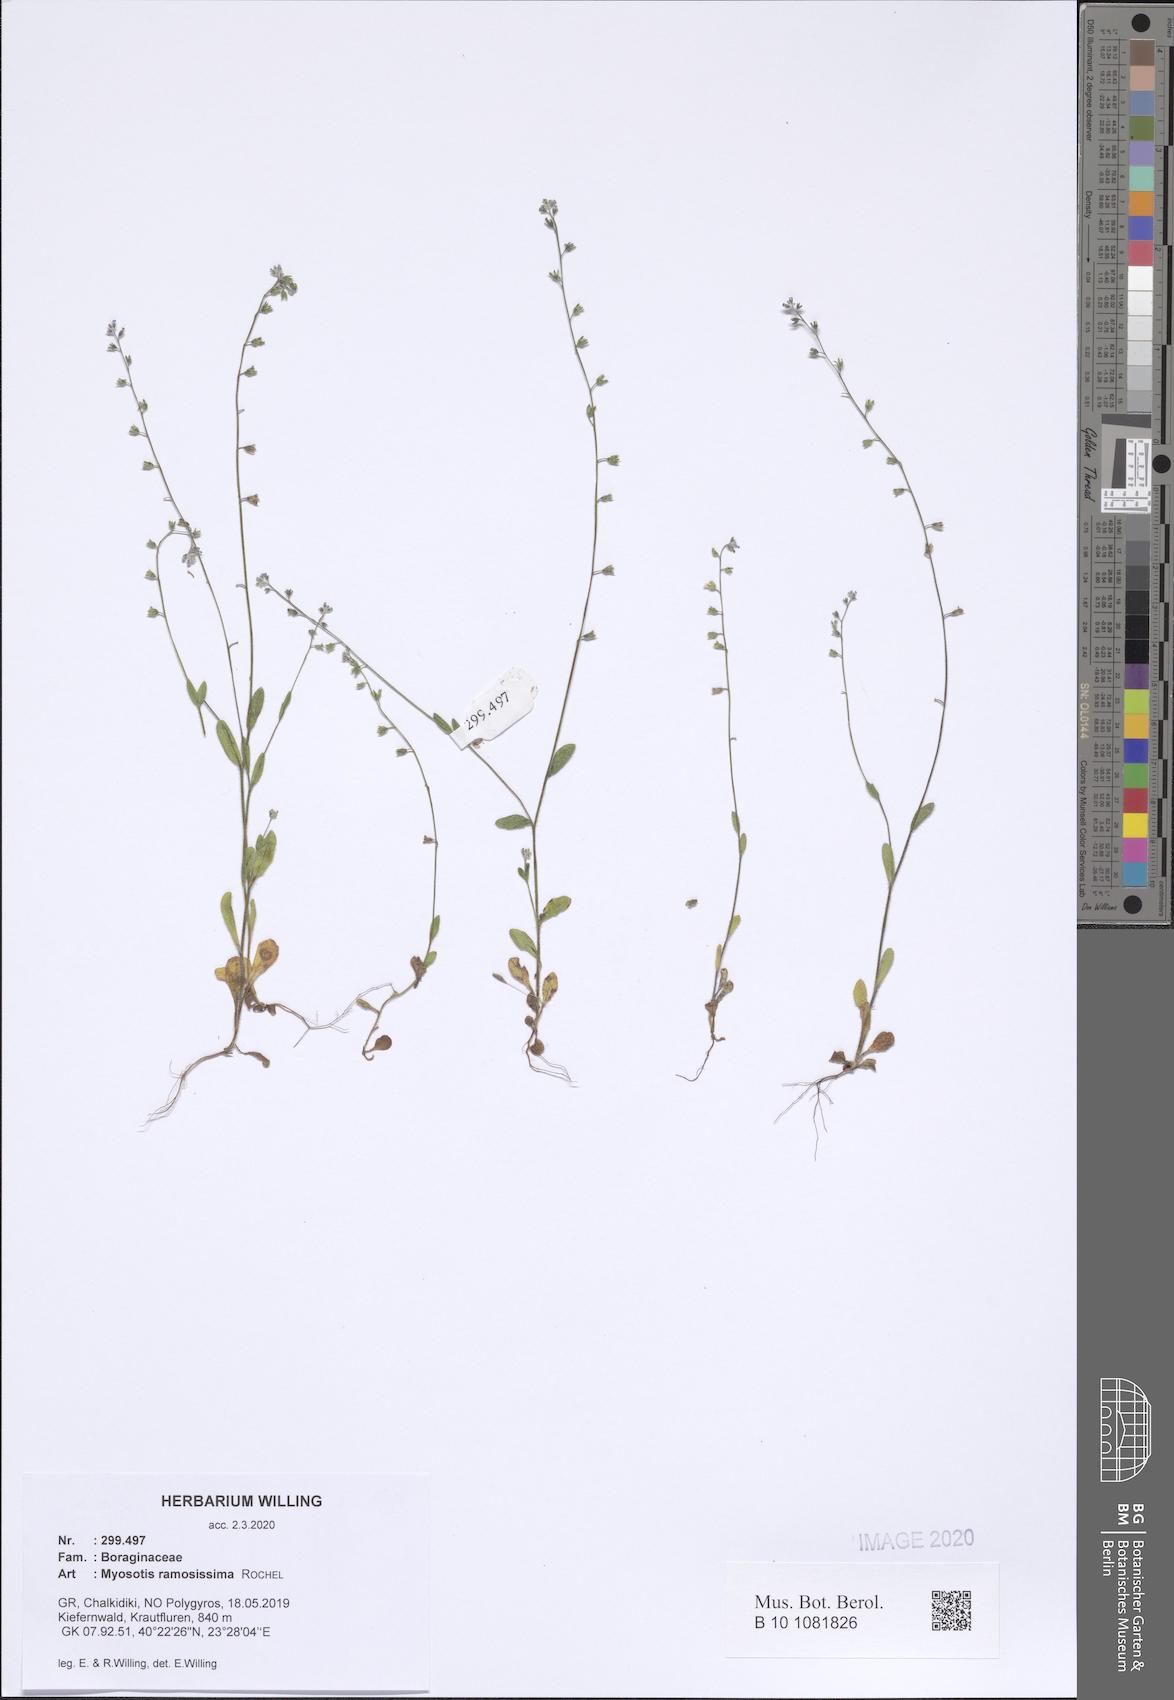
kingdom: Plantae
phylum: Tracheophyta
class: Magnoliopsida
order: Boraginales
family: Boraginaceae
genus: Myosotis
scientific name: Myosotis ramosissima
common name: Early forget-me-not
